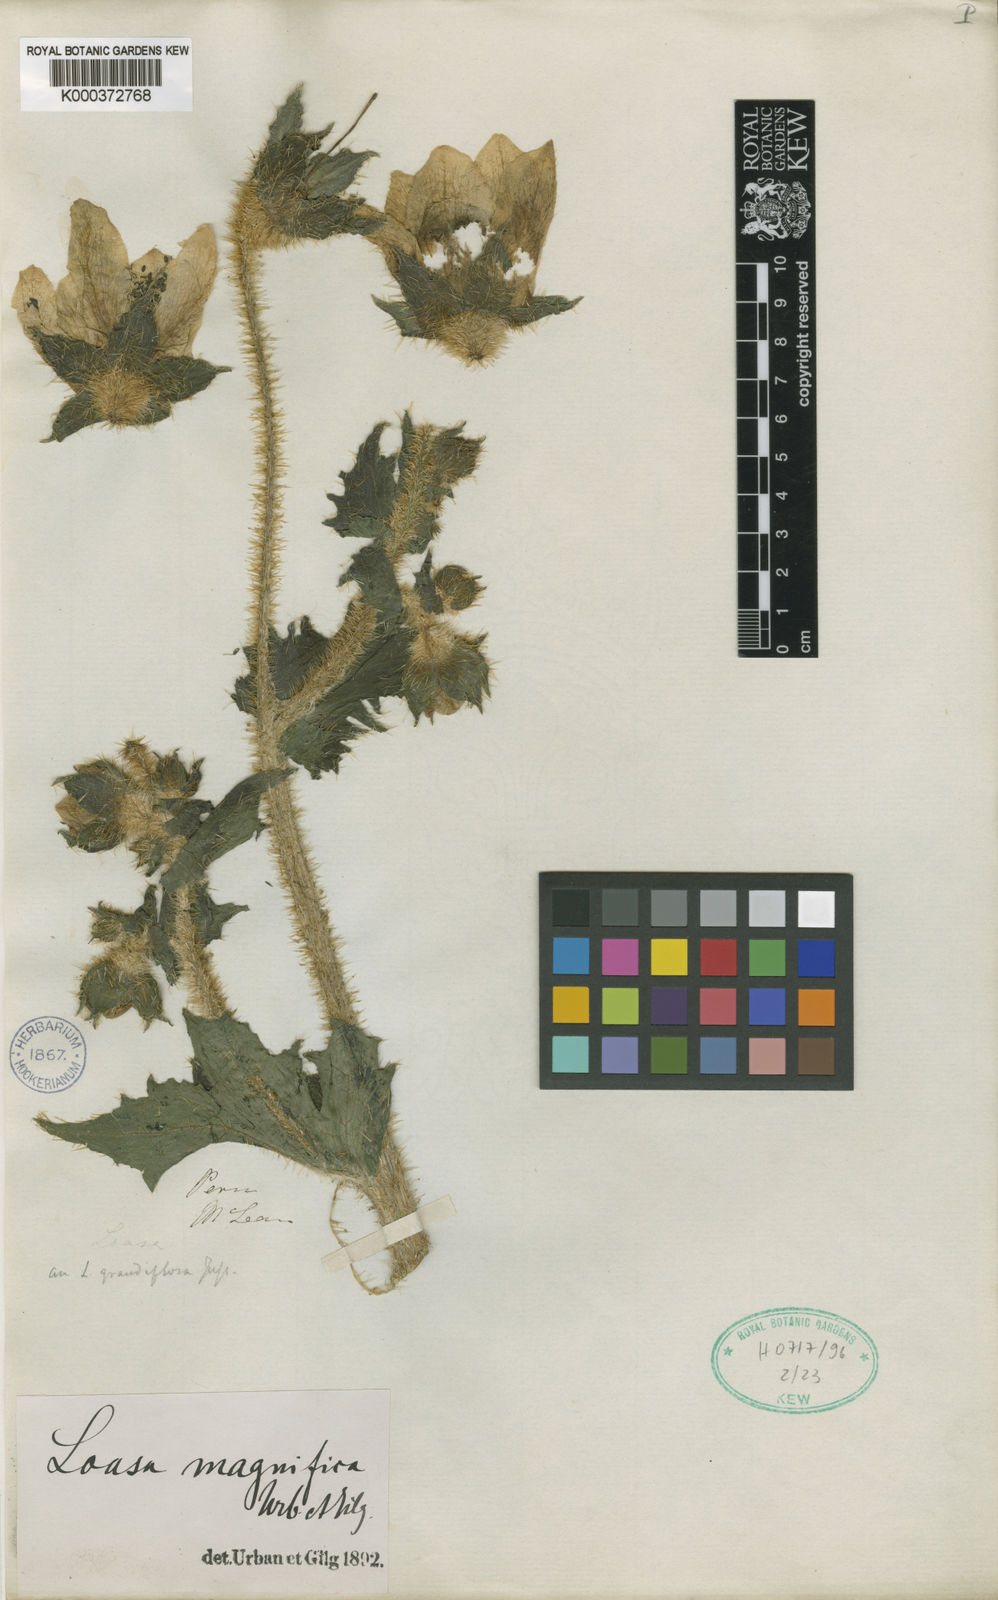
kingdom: Plantae
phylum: Tracheophyta
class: Magnoliopsida
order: Cornales
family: Loasaceae
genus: Nasa
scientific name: Nasa macrophylla
